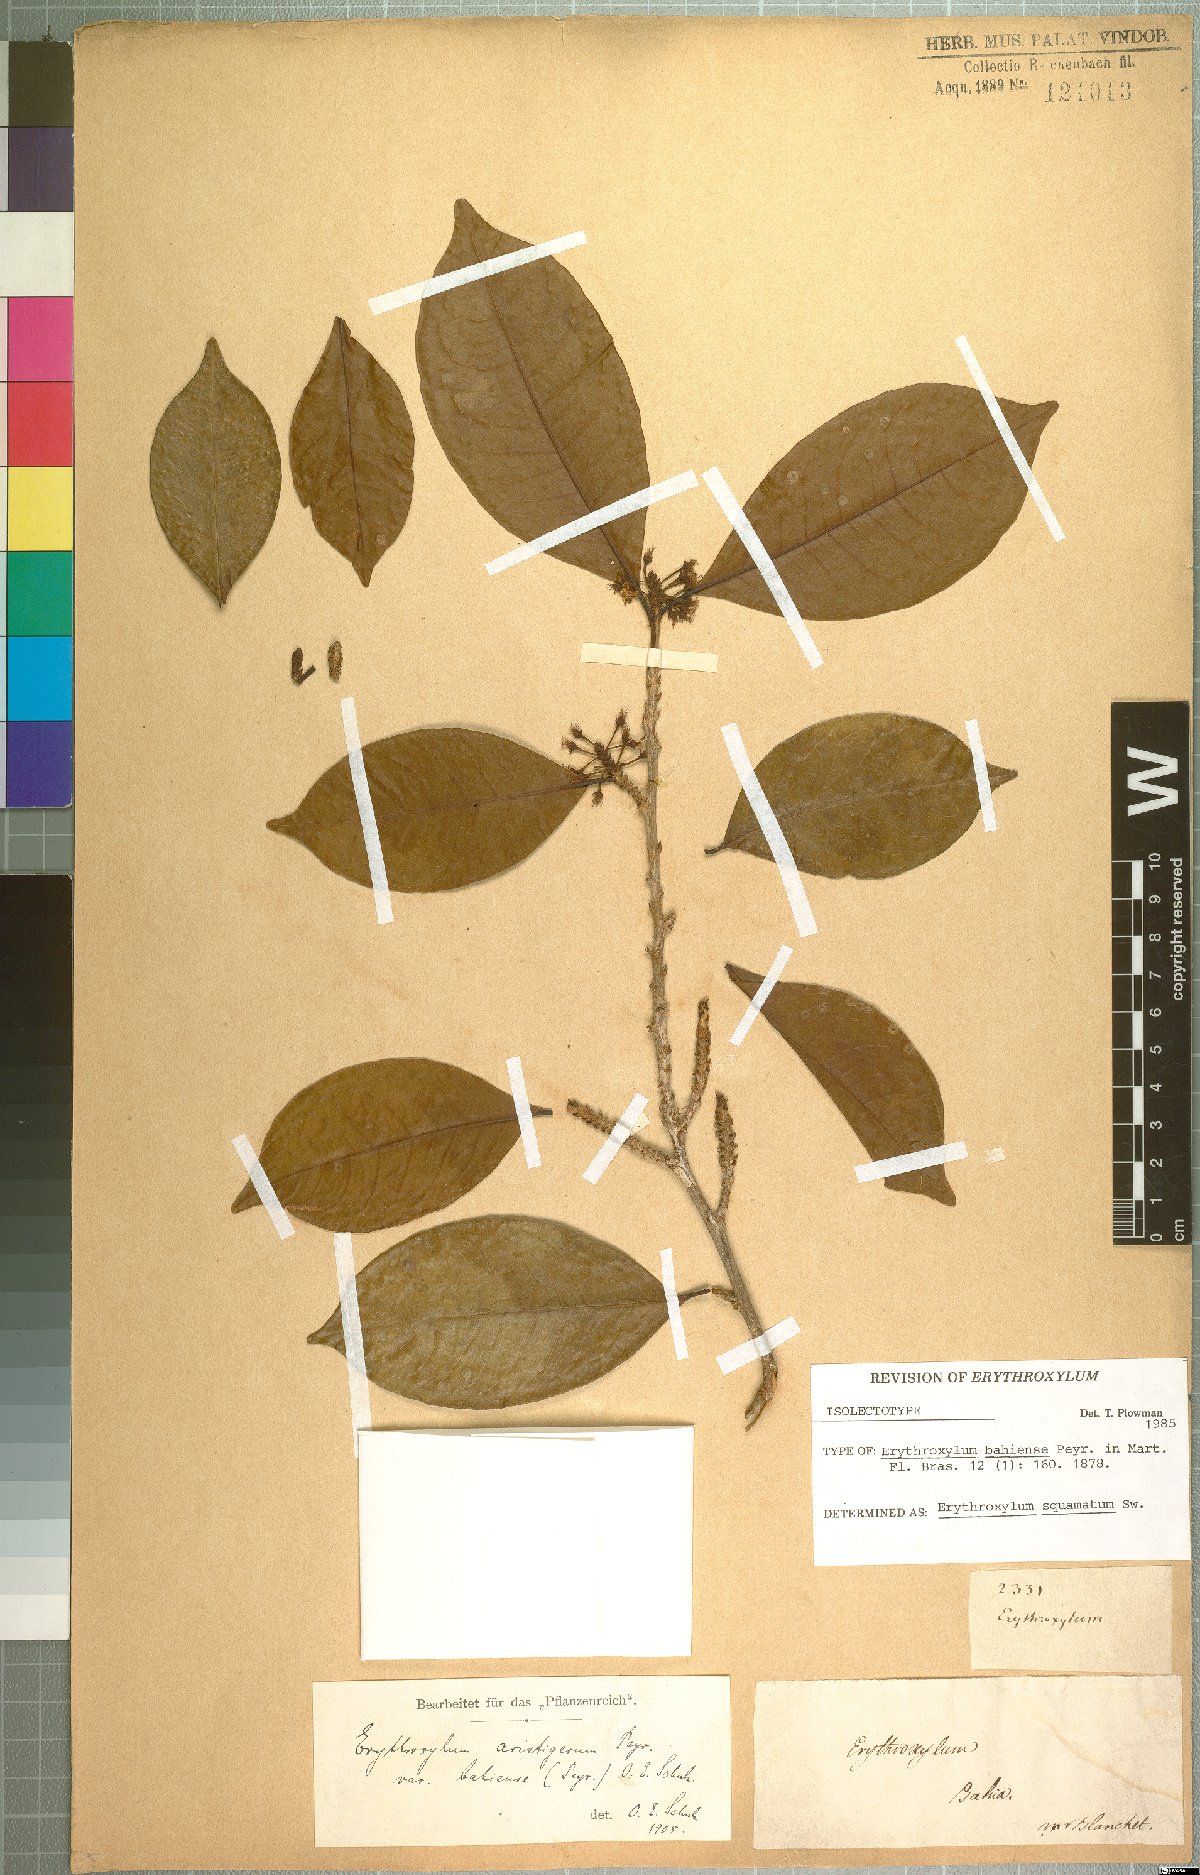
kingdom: Plantae
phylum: Tracheophyta
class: Magnoliopsida
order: Malpighiales
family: Erythroxylaceae
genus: Erythroxylum
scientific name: Erythroxylum squamatum
